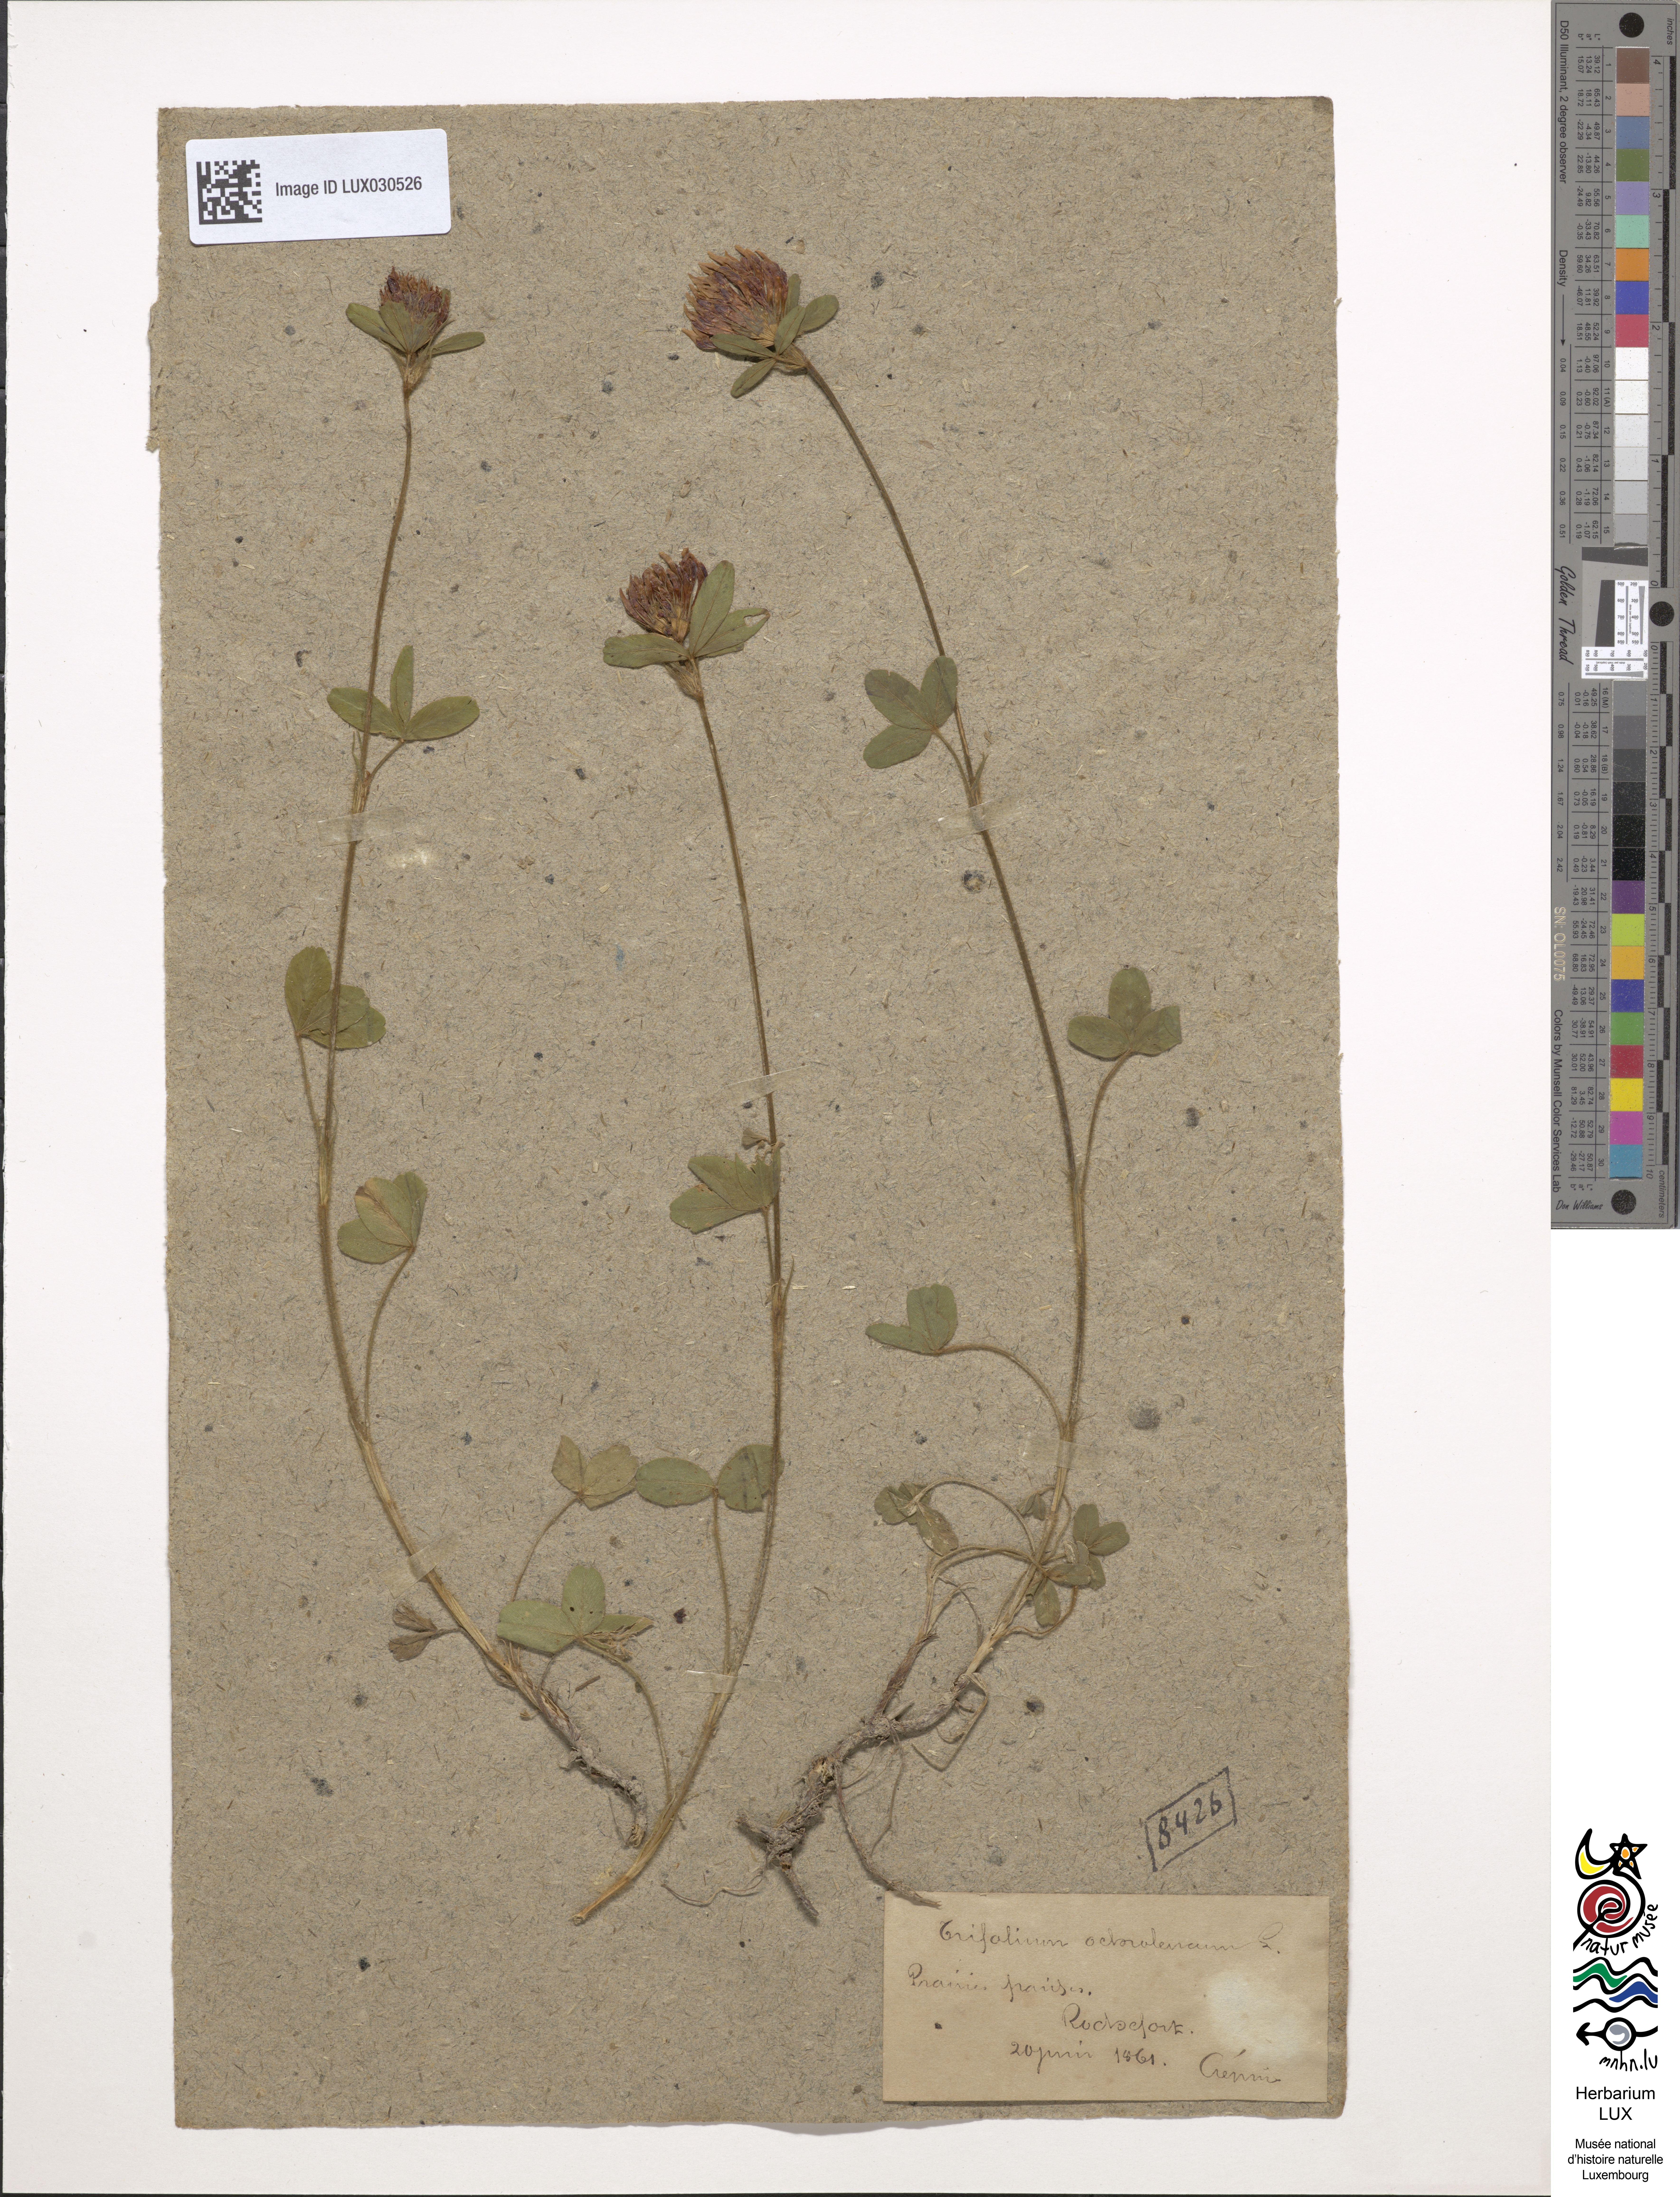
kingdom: Plantae
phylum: Tracheophyta
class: Magnoliopsida
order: Fabales
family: Fabaceae
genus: Trifolium
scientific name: Trifolium ochroleucon
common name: Sulphur clover
